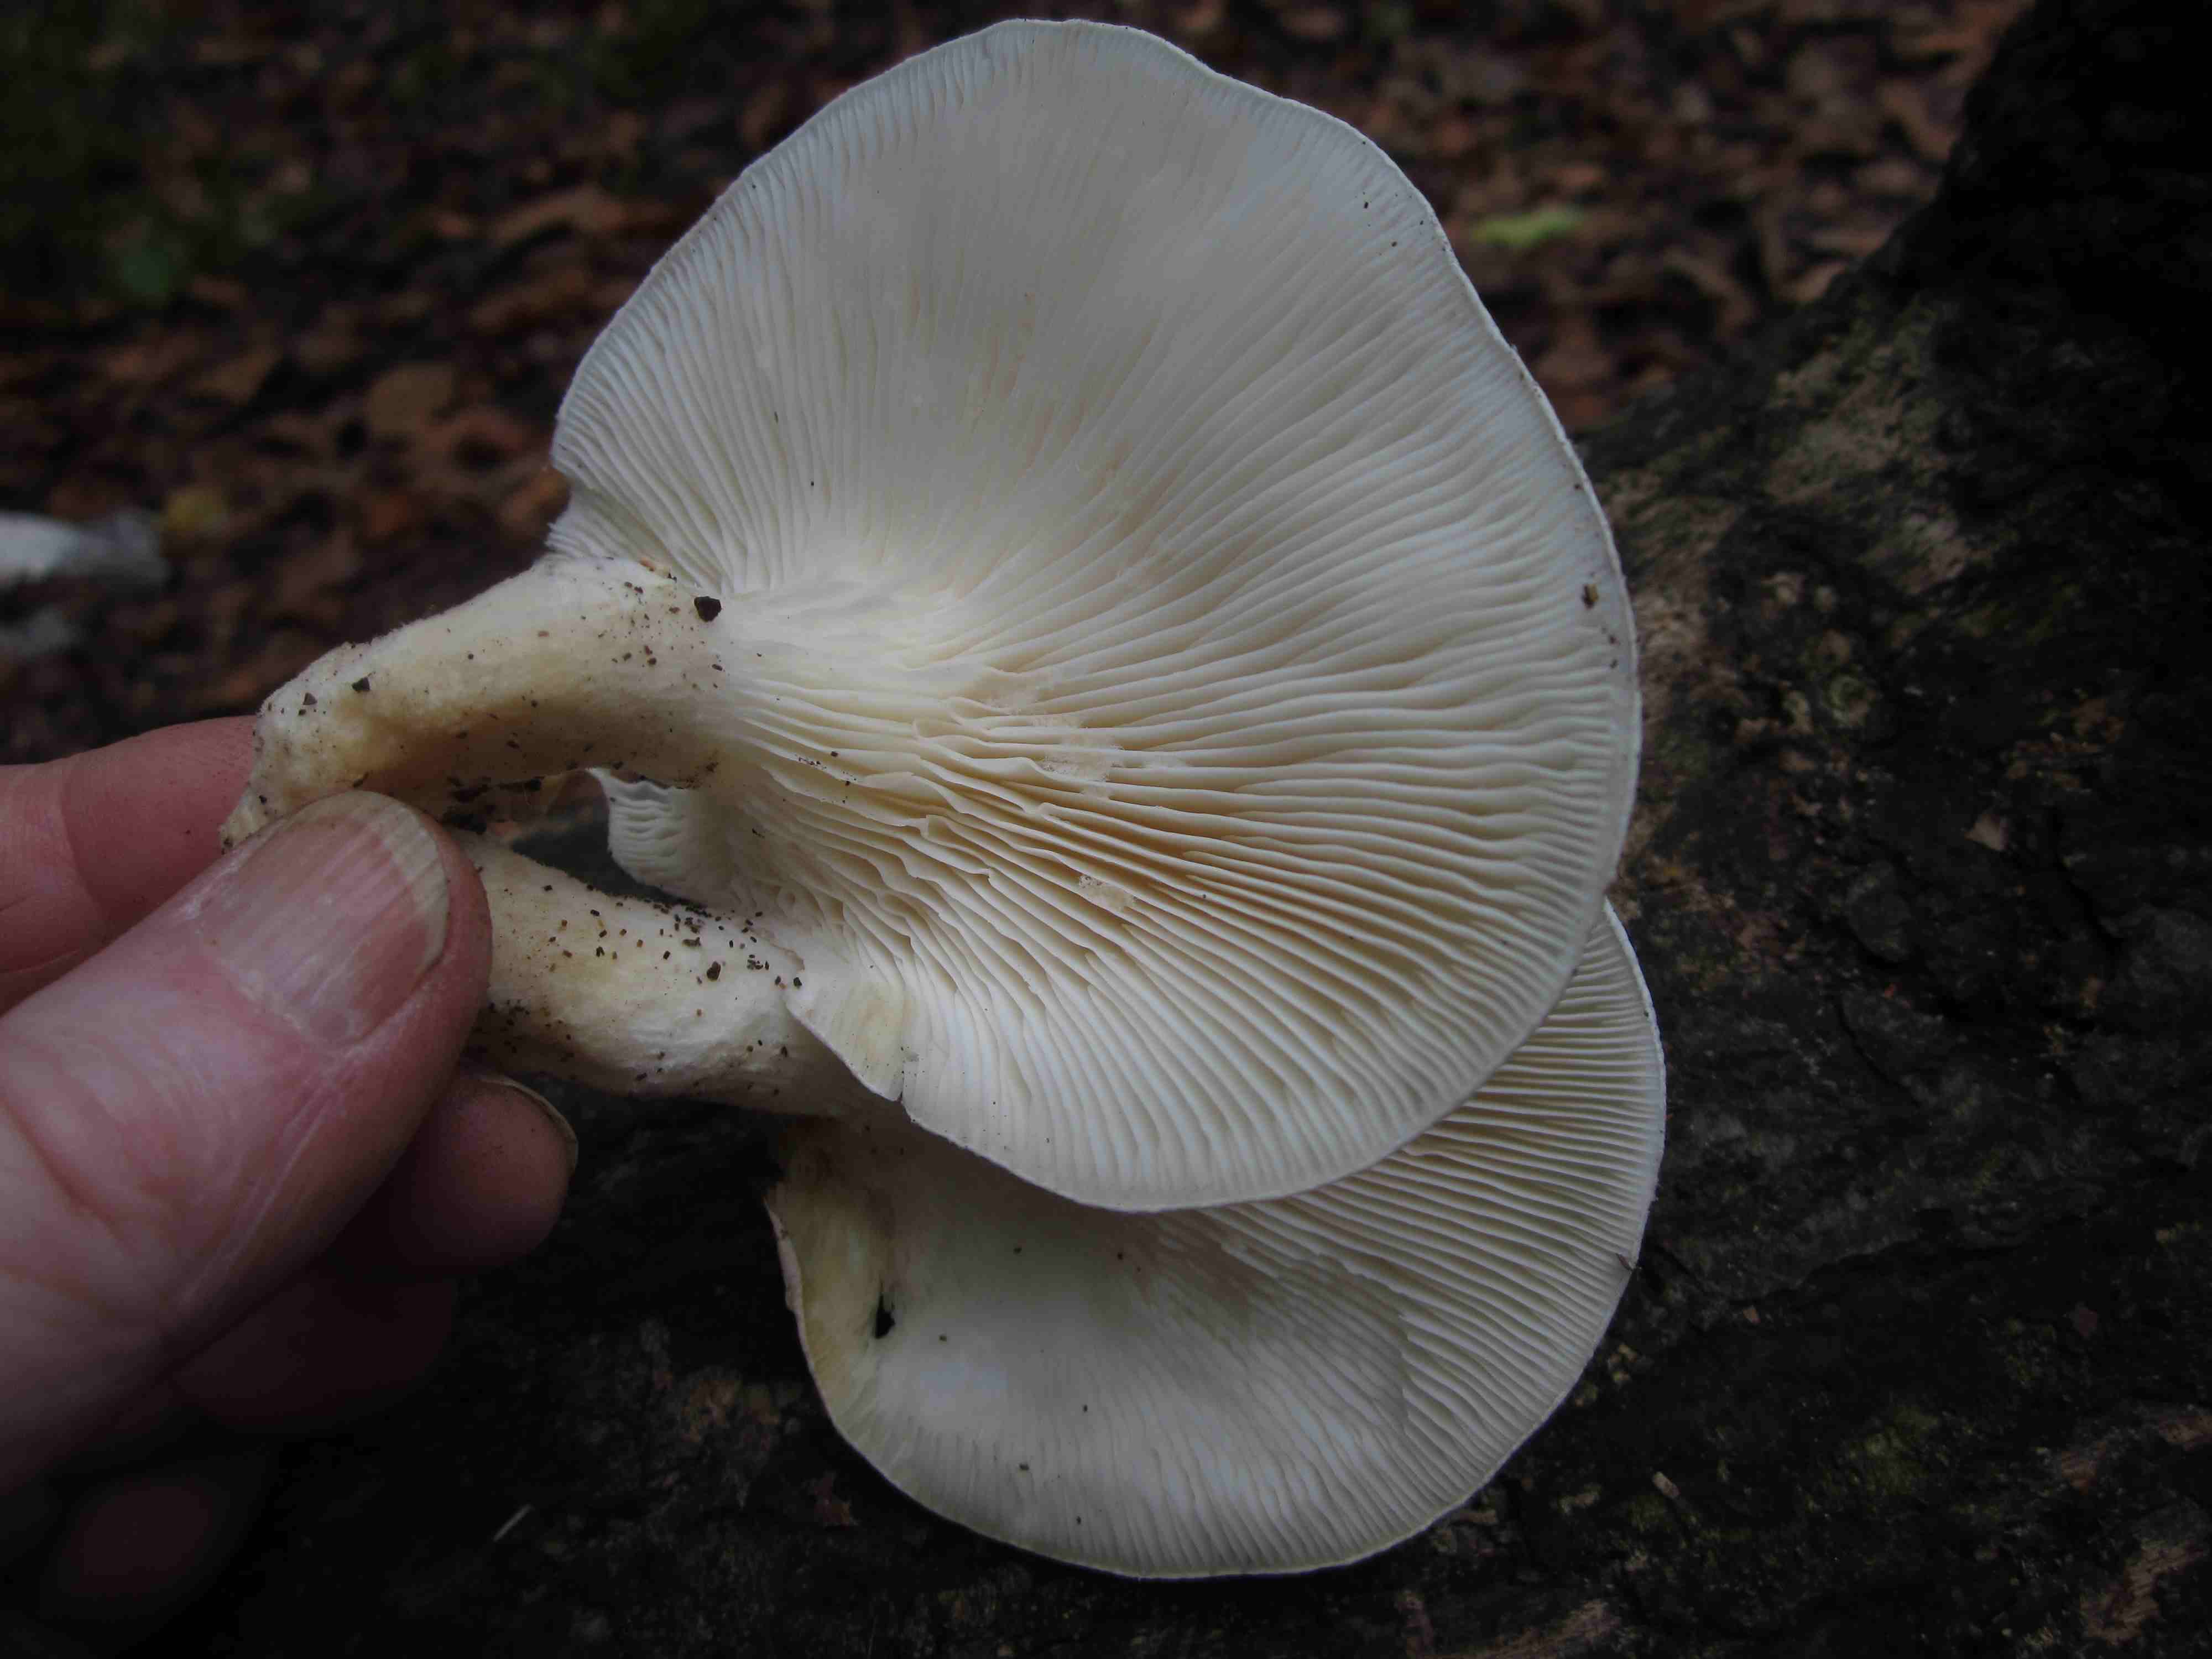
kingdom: Fungi
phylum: Basidiomycota
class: Agaricomycetes
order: Agaricales
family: Pleurotaceae
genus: Pleurotus
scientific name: Pleurotus dryinus
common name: korkagtig østershat
